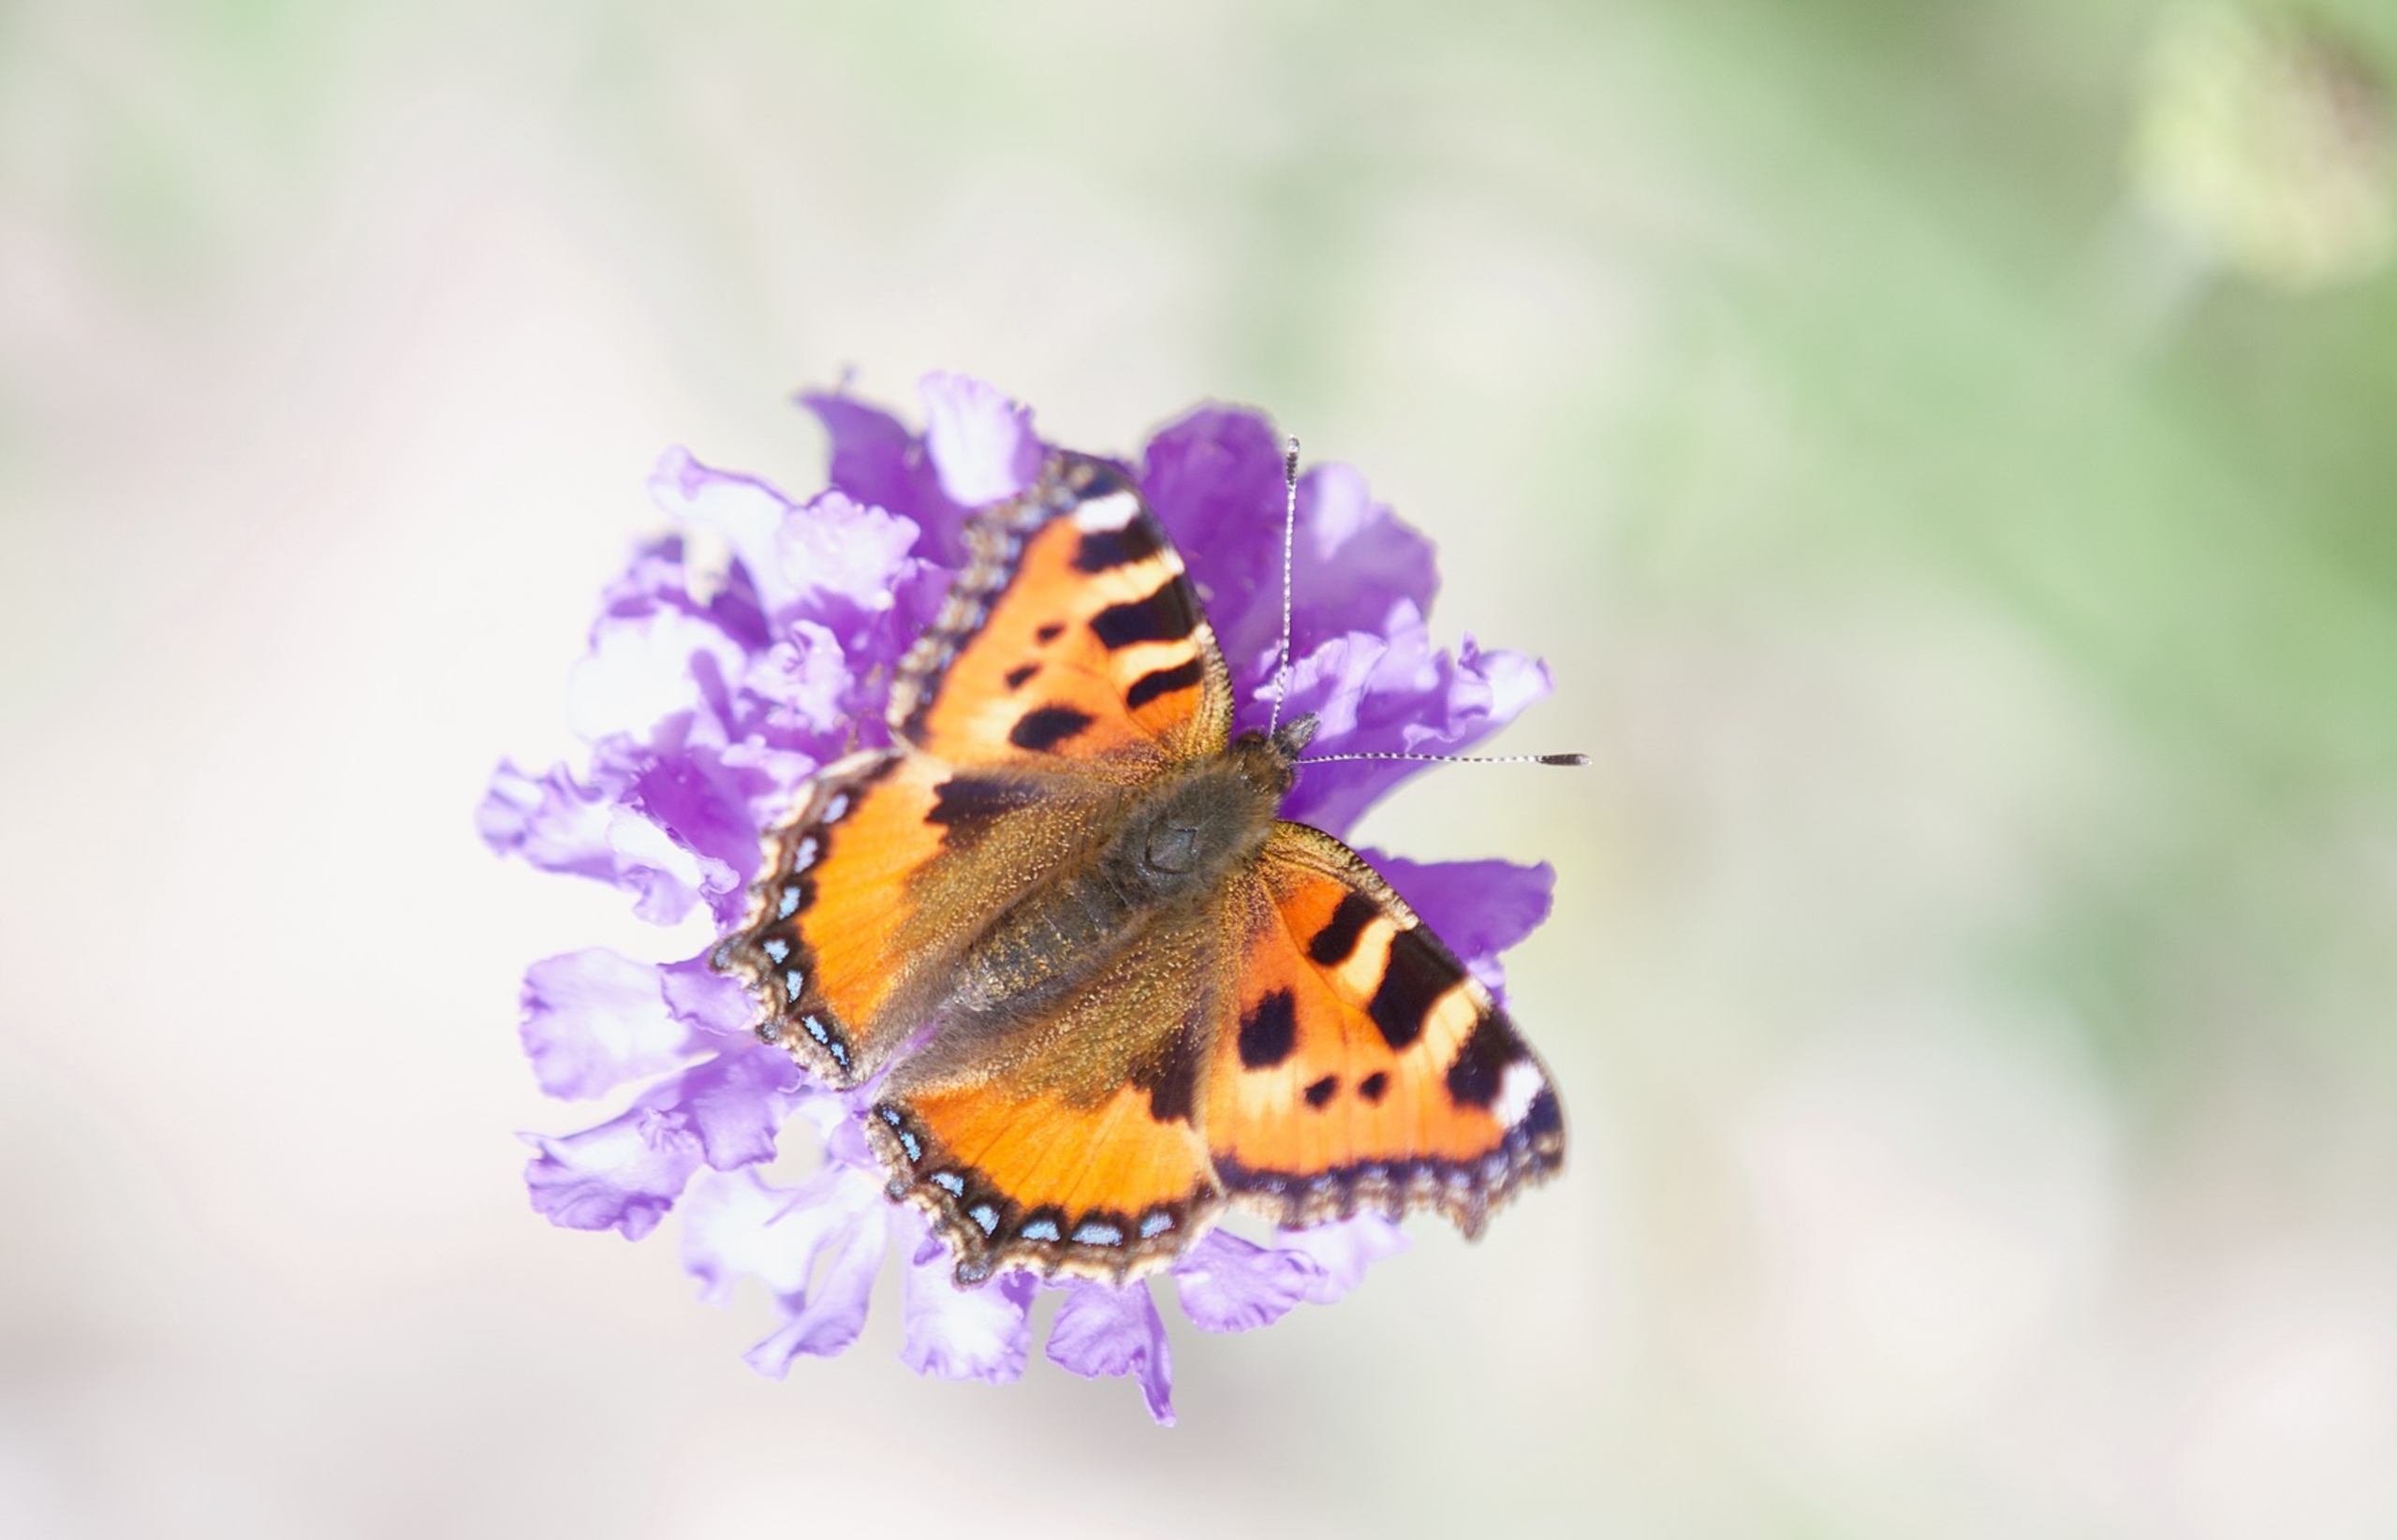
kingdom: Animalia
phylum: Arthropoda
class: Insecta
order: Lepidoptera
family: Nymphalidae
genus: Aglais
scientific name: Aglais urticae
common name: Nældens takvinge
